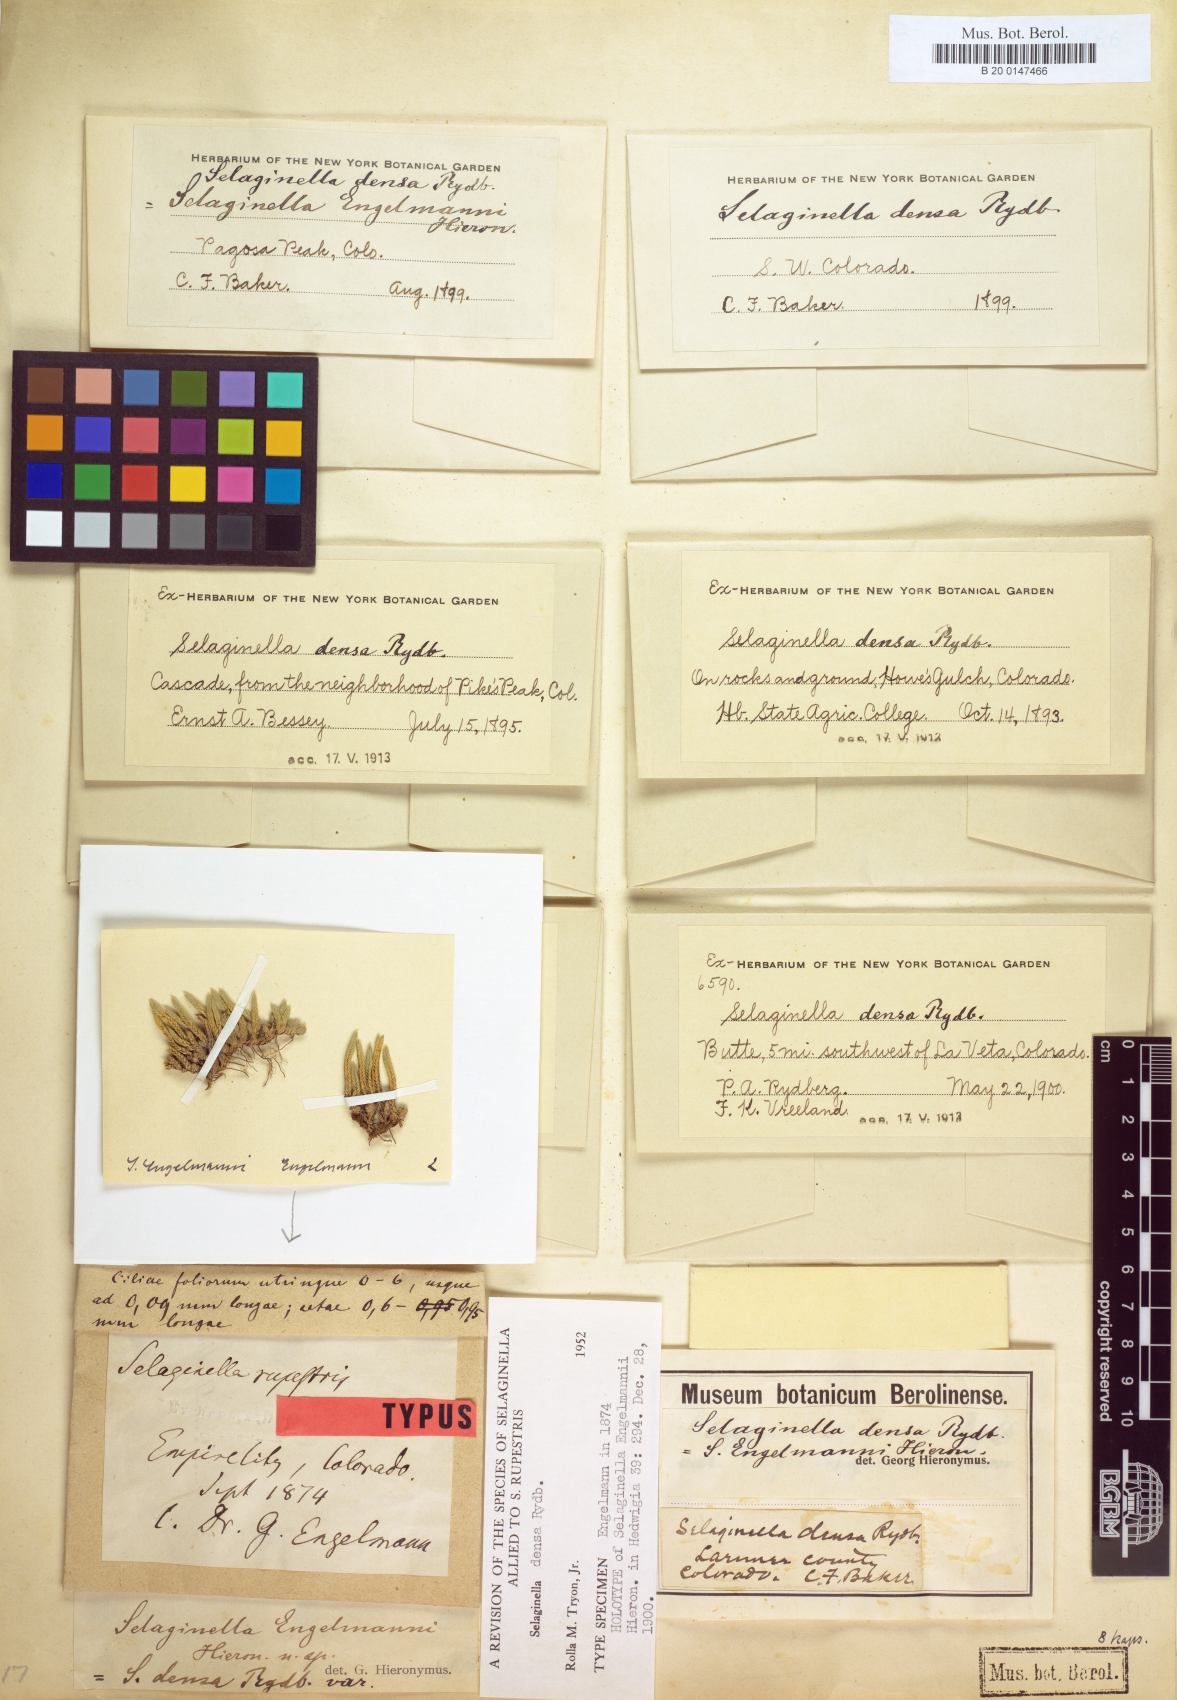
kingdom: Plantae
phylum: Tracheophyta
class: Lycopodiopsida
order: Selaginellales
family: Selaginellaceae
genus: Selaginella
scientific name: Selaginella densa
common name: Mountain spike-moss
